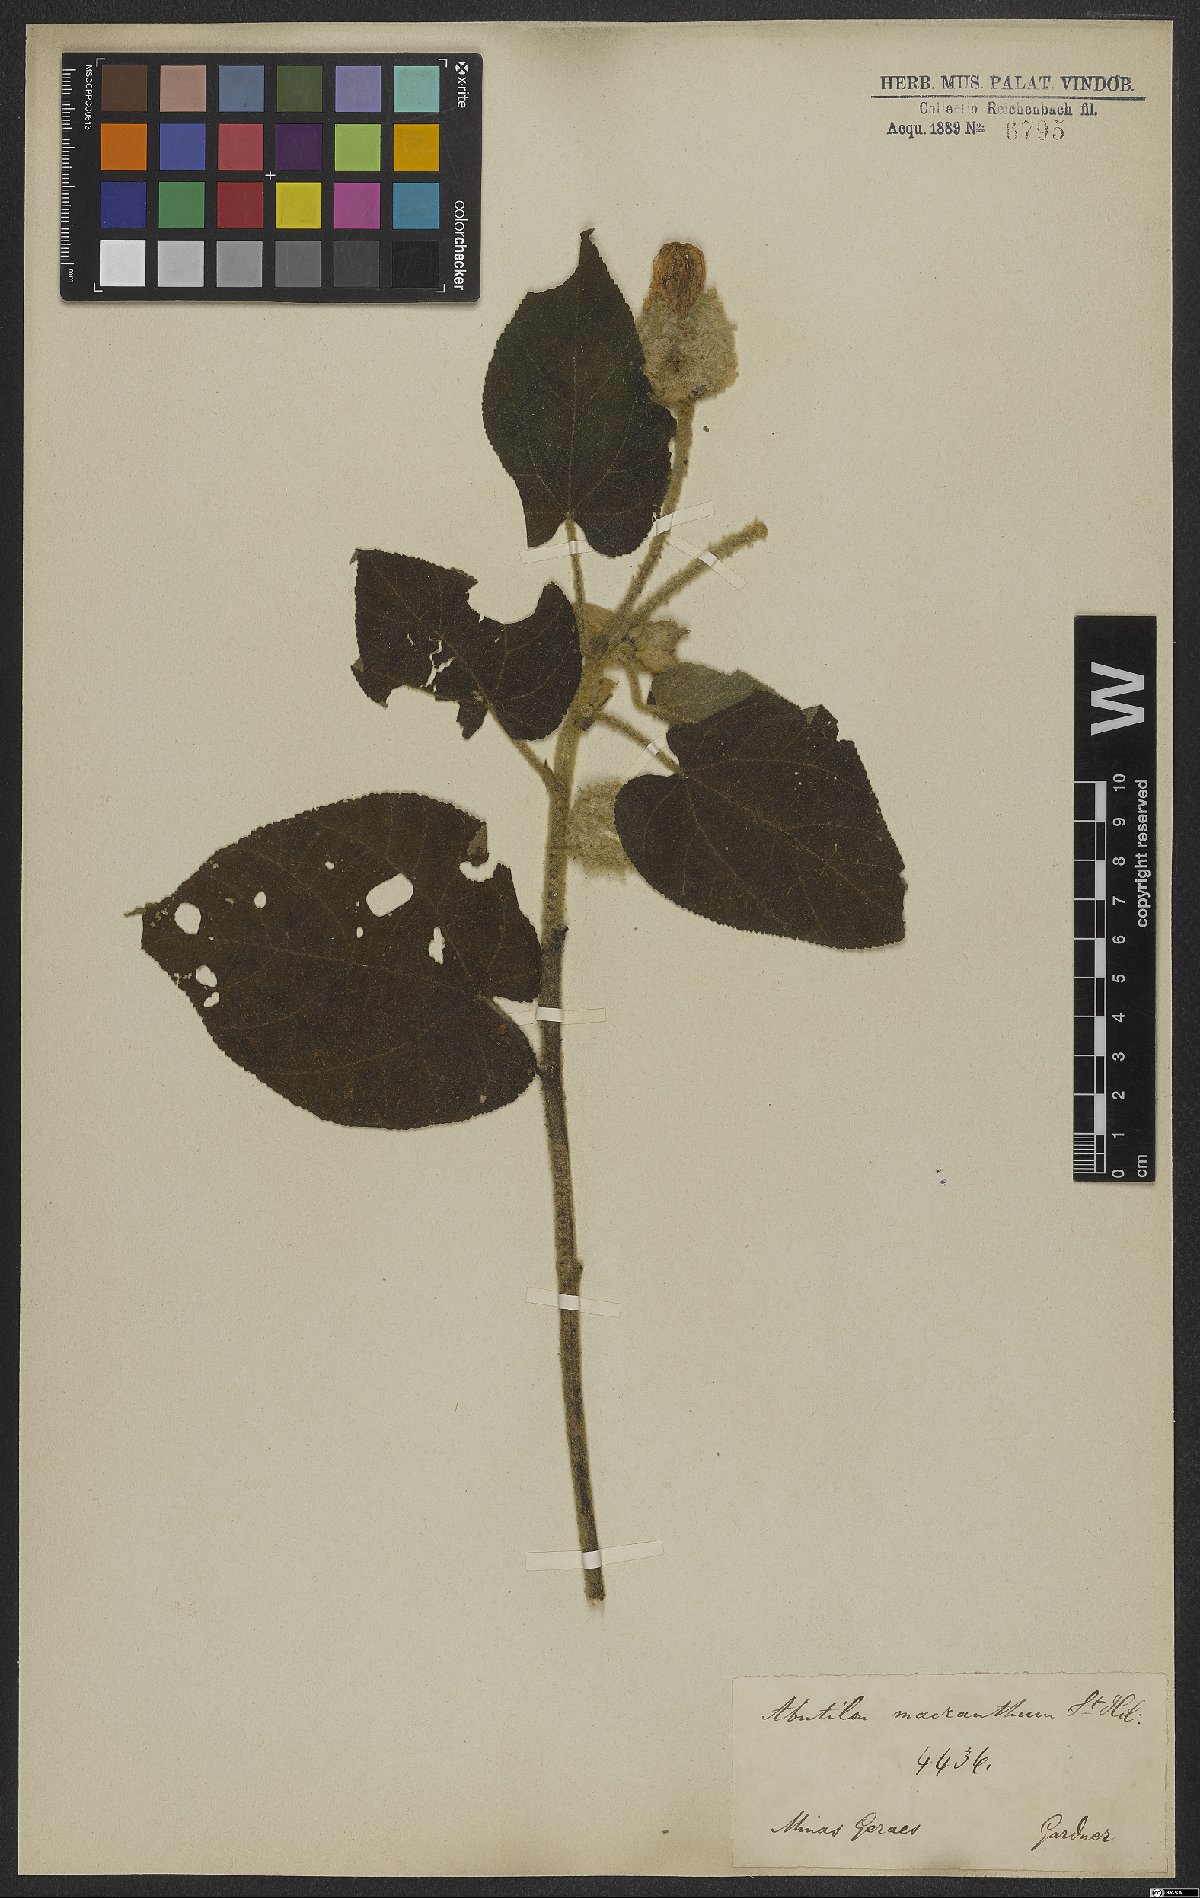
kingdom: Plantae
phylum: Tracheophyta
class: Magnoliopsida
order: Malvales
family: Malvaceae
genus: Bakeridesia
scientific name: Bakeridesia ferruginea
